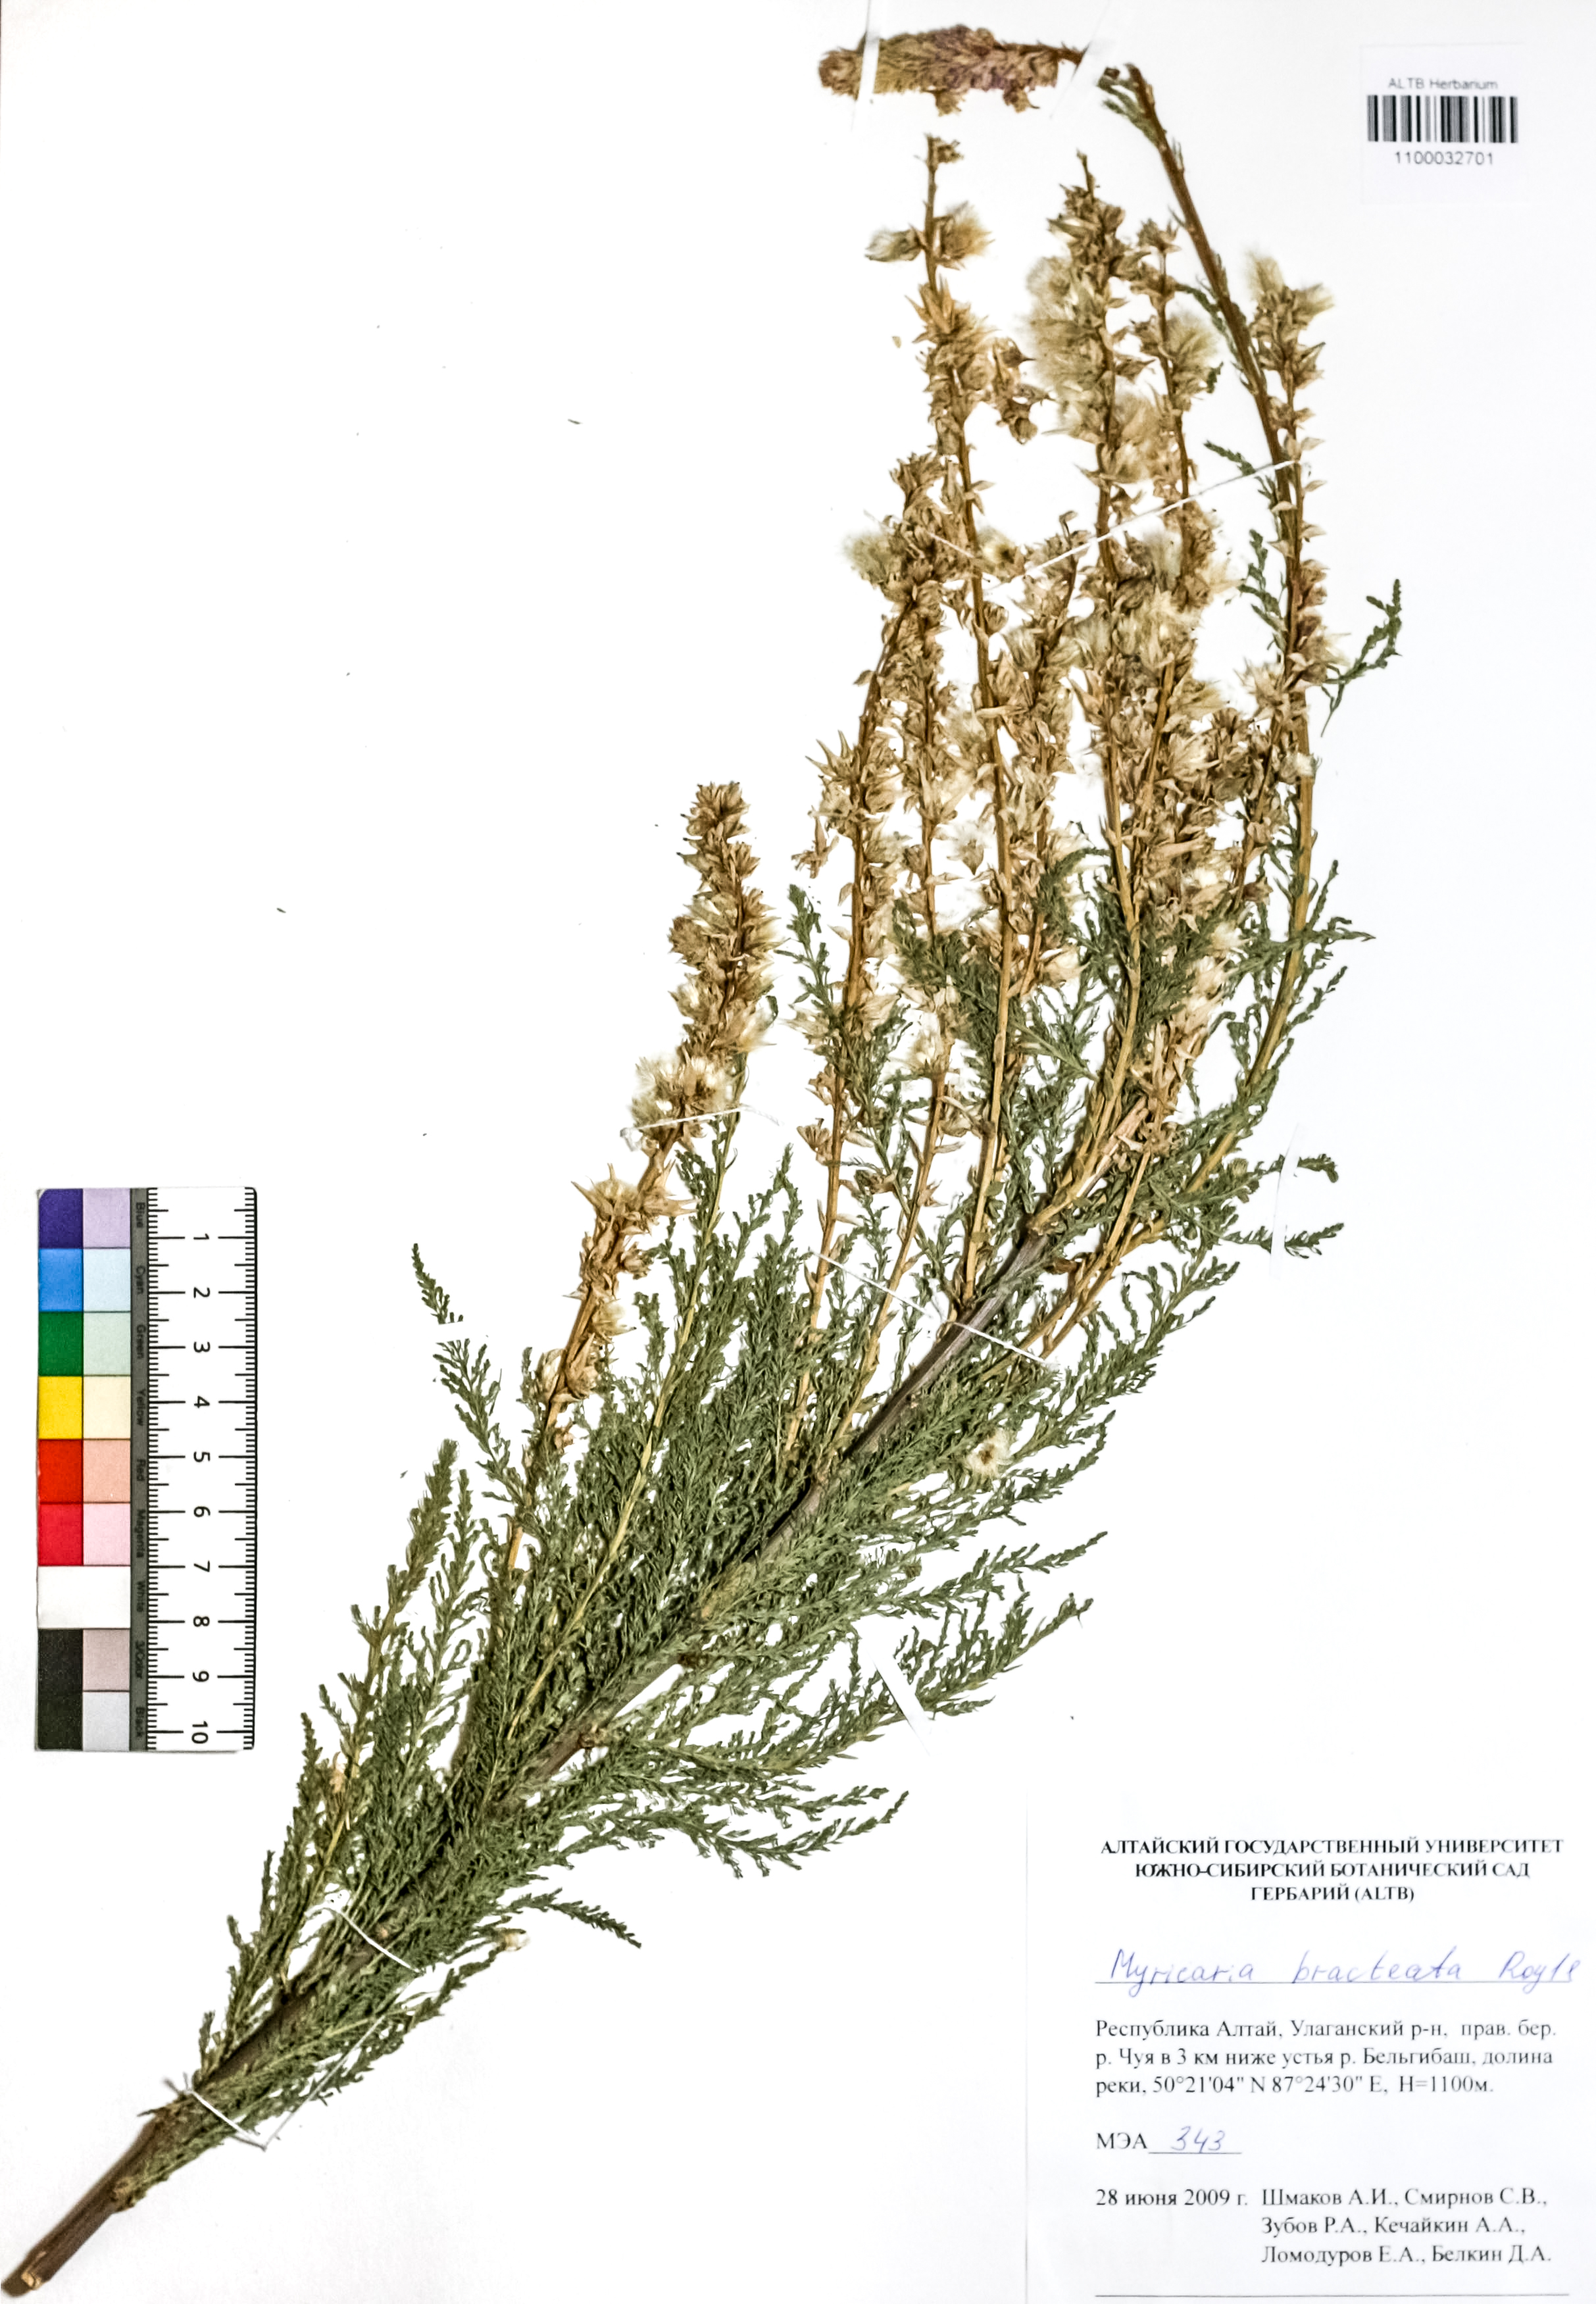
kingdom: Plantae
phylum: Tracheophyta
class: Magnoliopsida
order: Caryophyllales
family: Tamaricaceae
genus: Myricaria
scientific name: Myricaria bracteata
